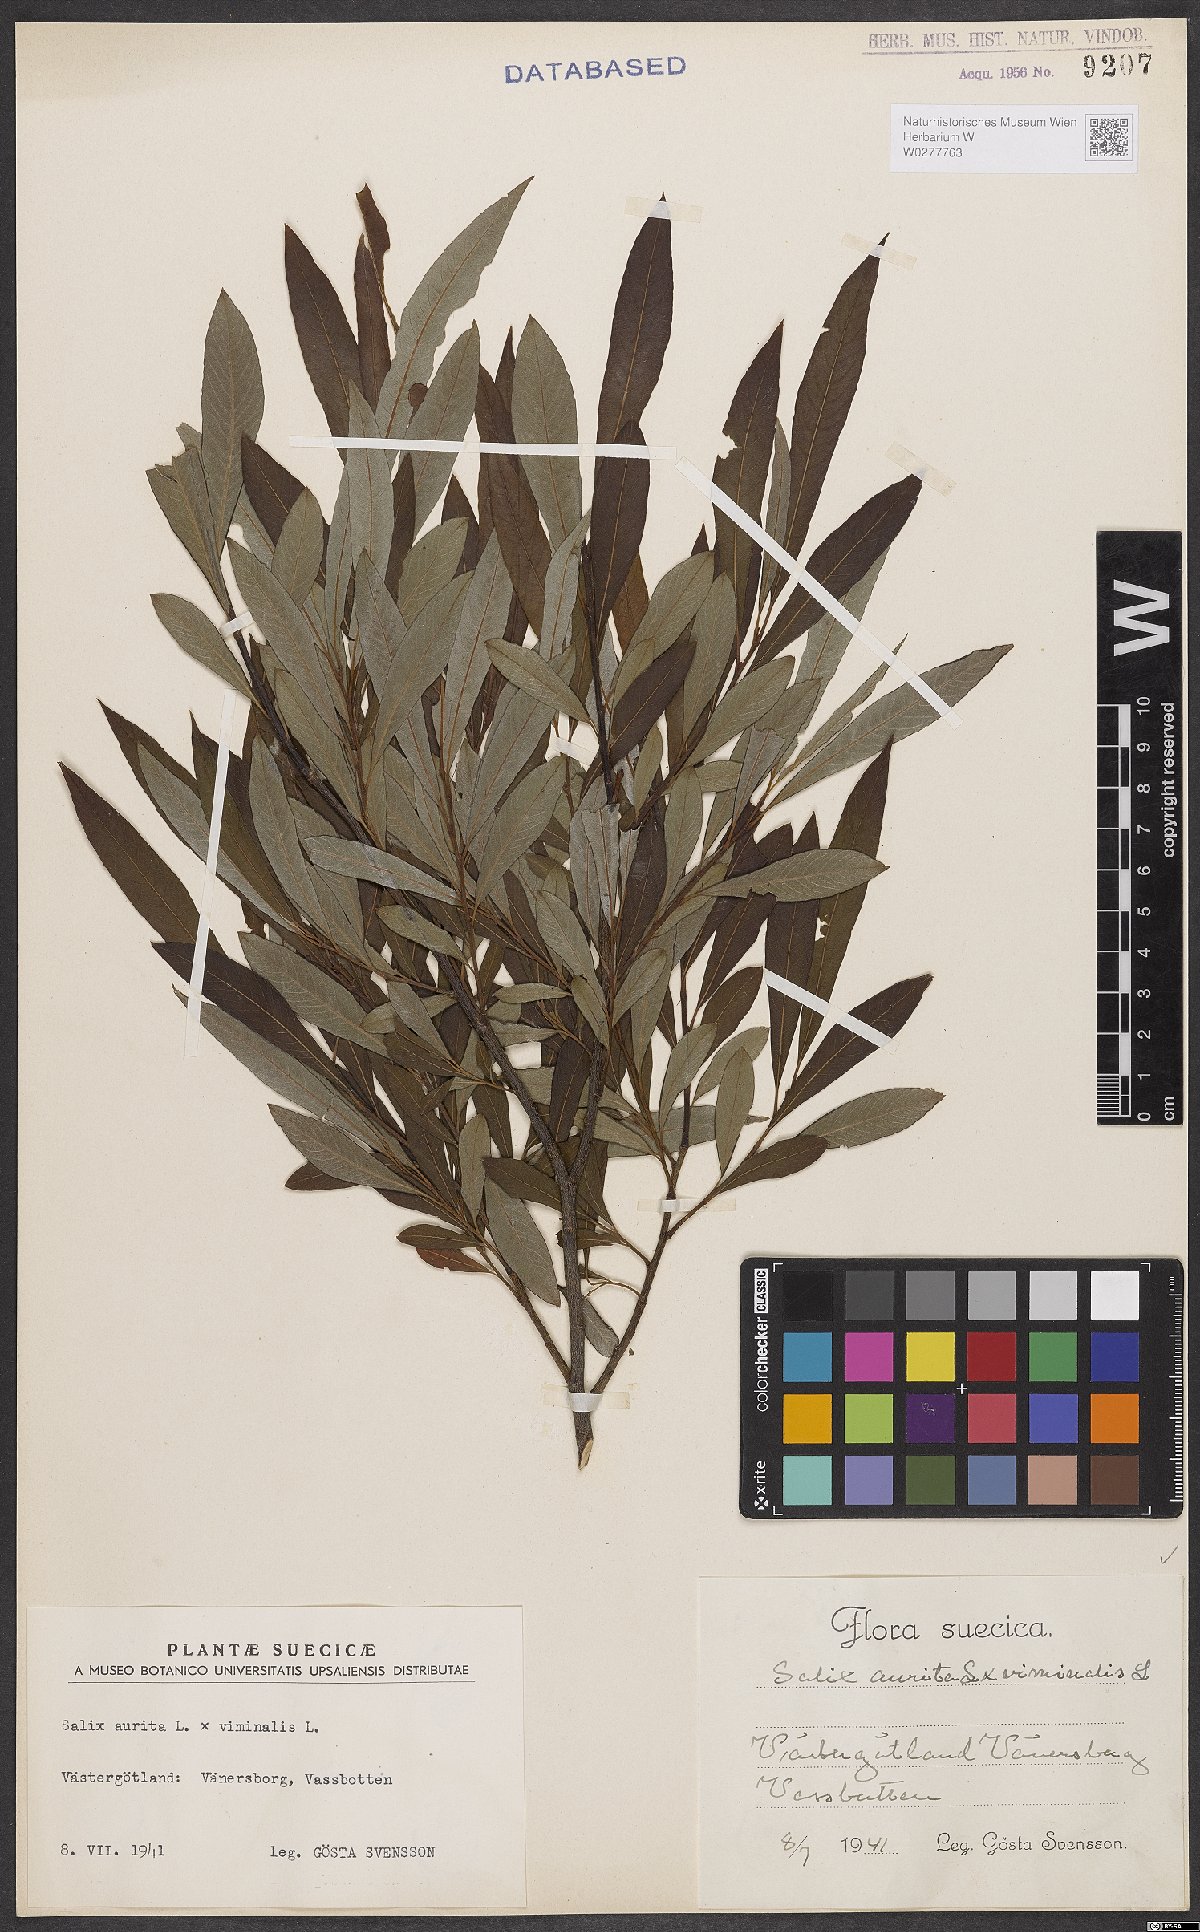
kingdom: Plantae
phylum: Tracheophyta
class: Magnoliopsida
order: Malpighiales
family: Salicaceae
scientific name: Salicaceae
